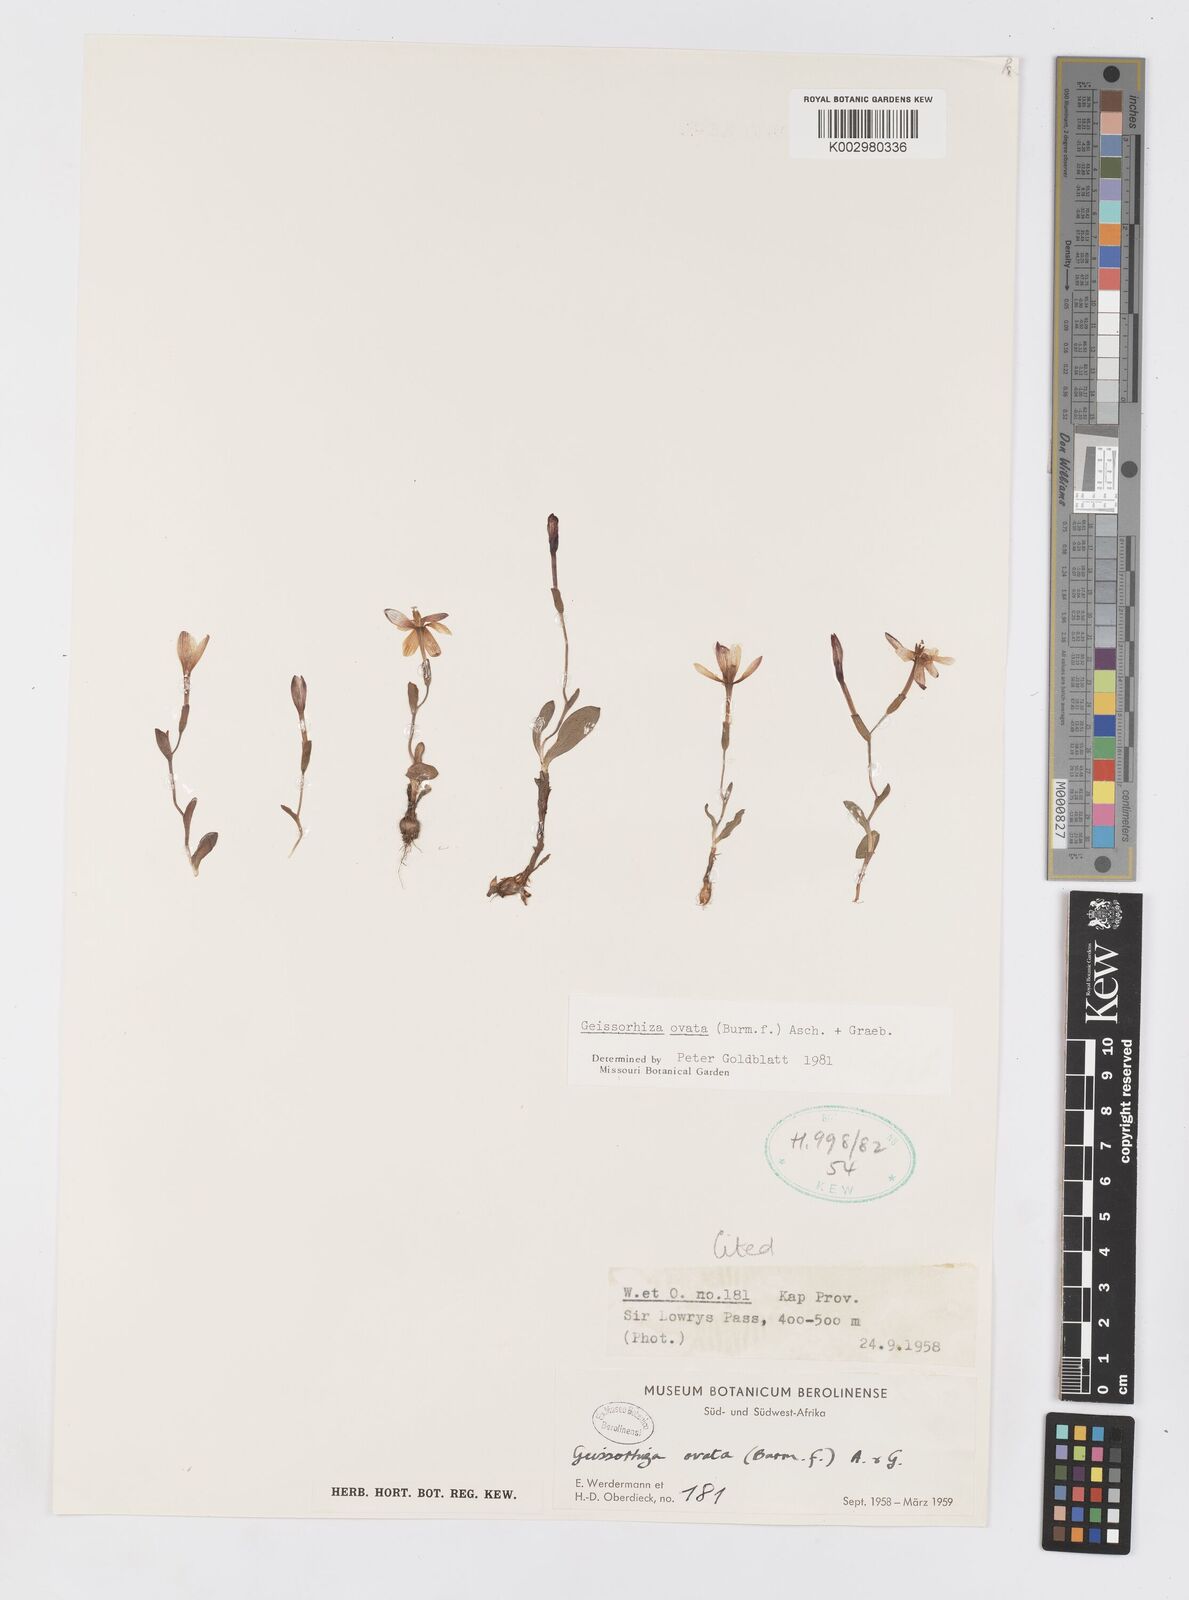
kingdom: Plantae
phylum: Tracheophyta
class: Liliopsida
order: Asparagales
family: Iridaceae
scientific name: Iridaceae
